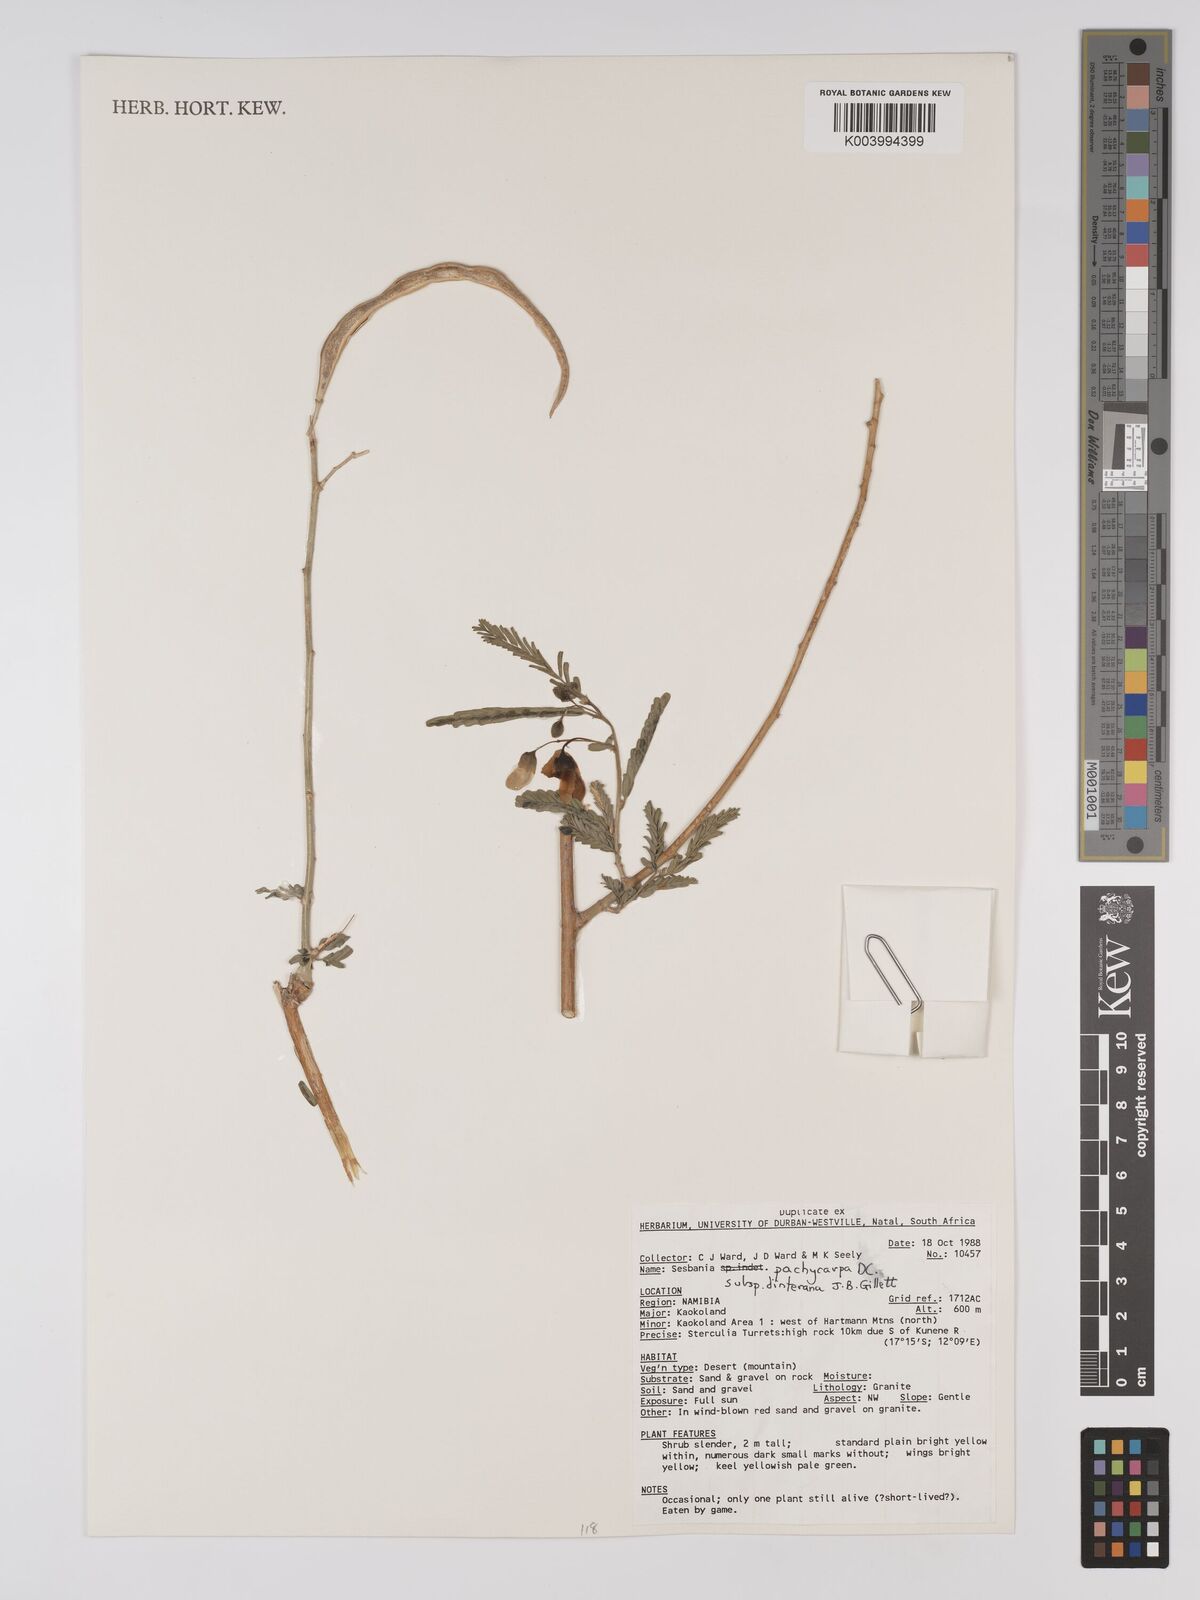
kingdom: Plantae
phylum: Tracheophyta
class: Magnoliopsida
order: Fabales
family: Fabaceae
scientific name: Fabaceae
